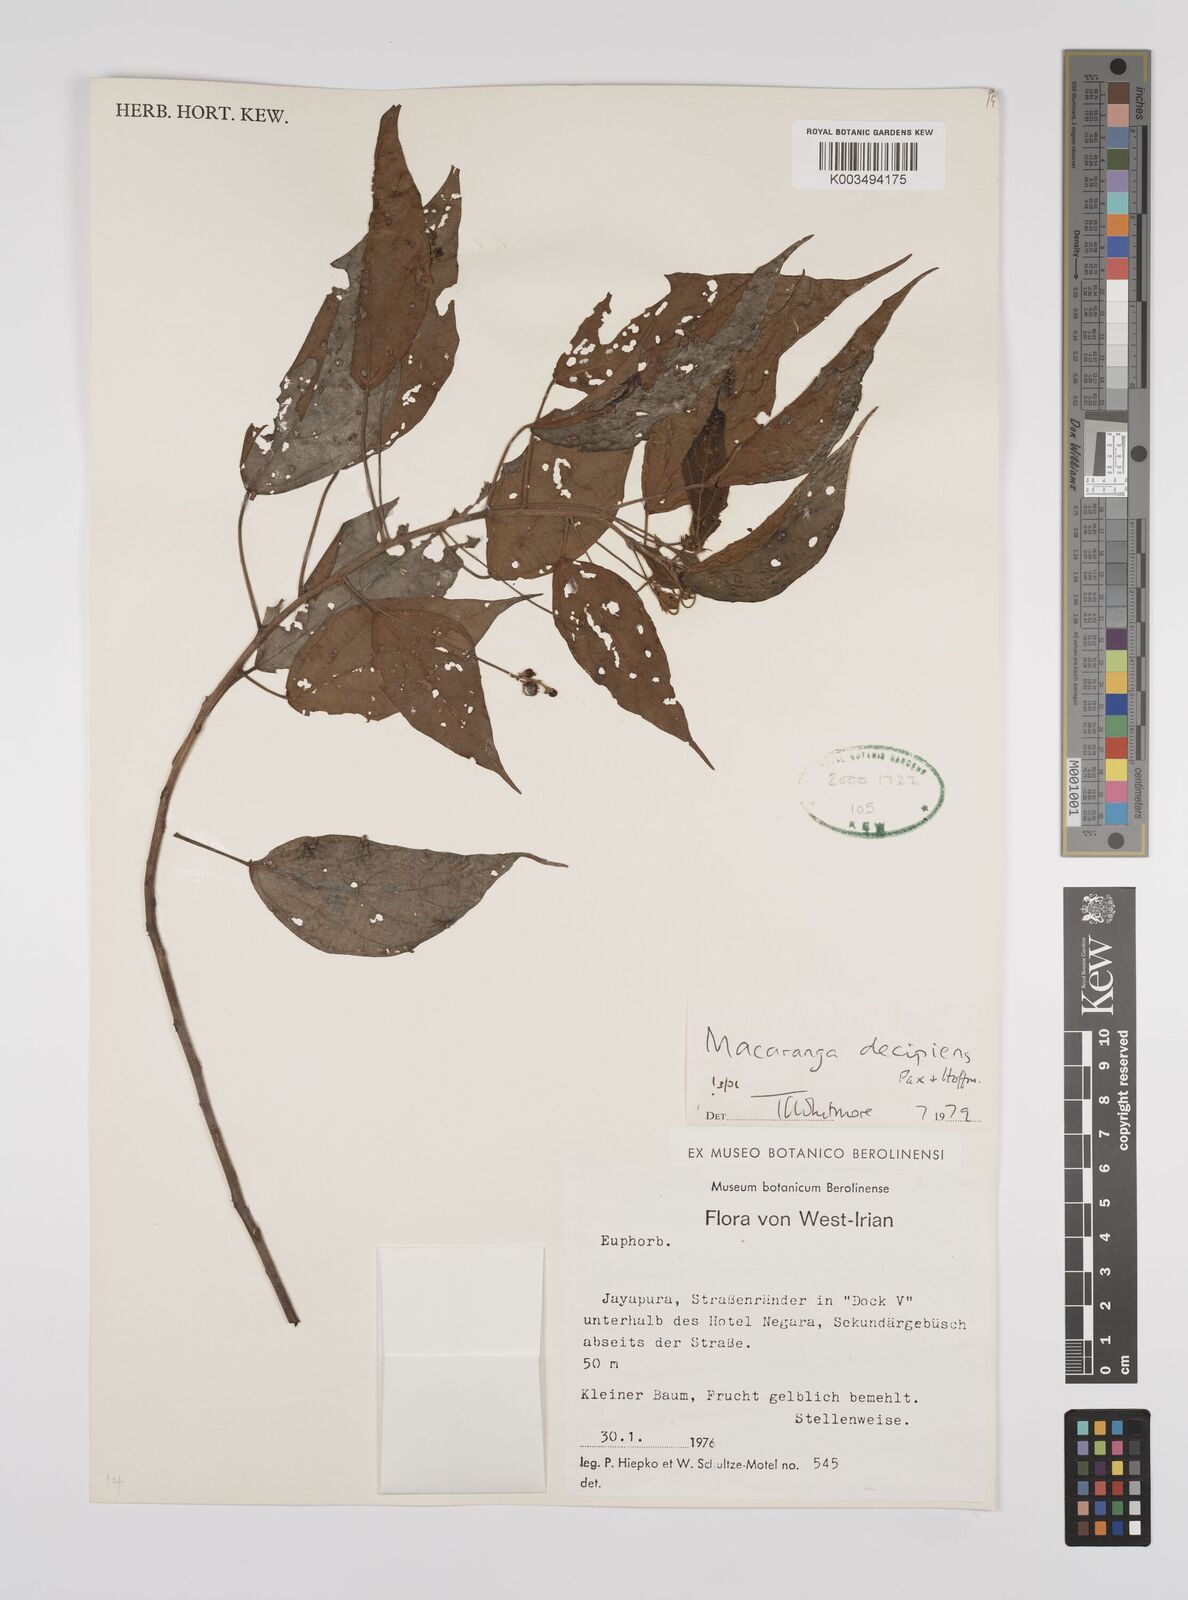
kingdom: Plantae
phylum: Tracheophyta
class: Magnoliopsida
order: Malpighiales
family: Euphorbiaceae
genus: Macaranga
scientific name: Macaranga decipiens
